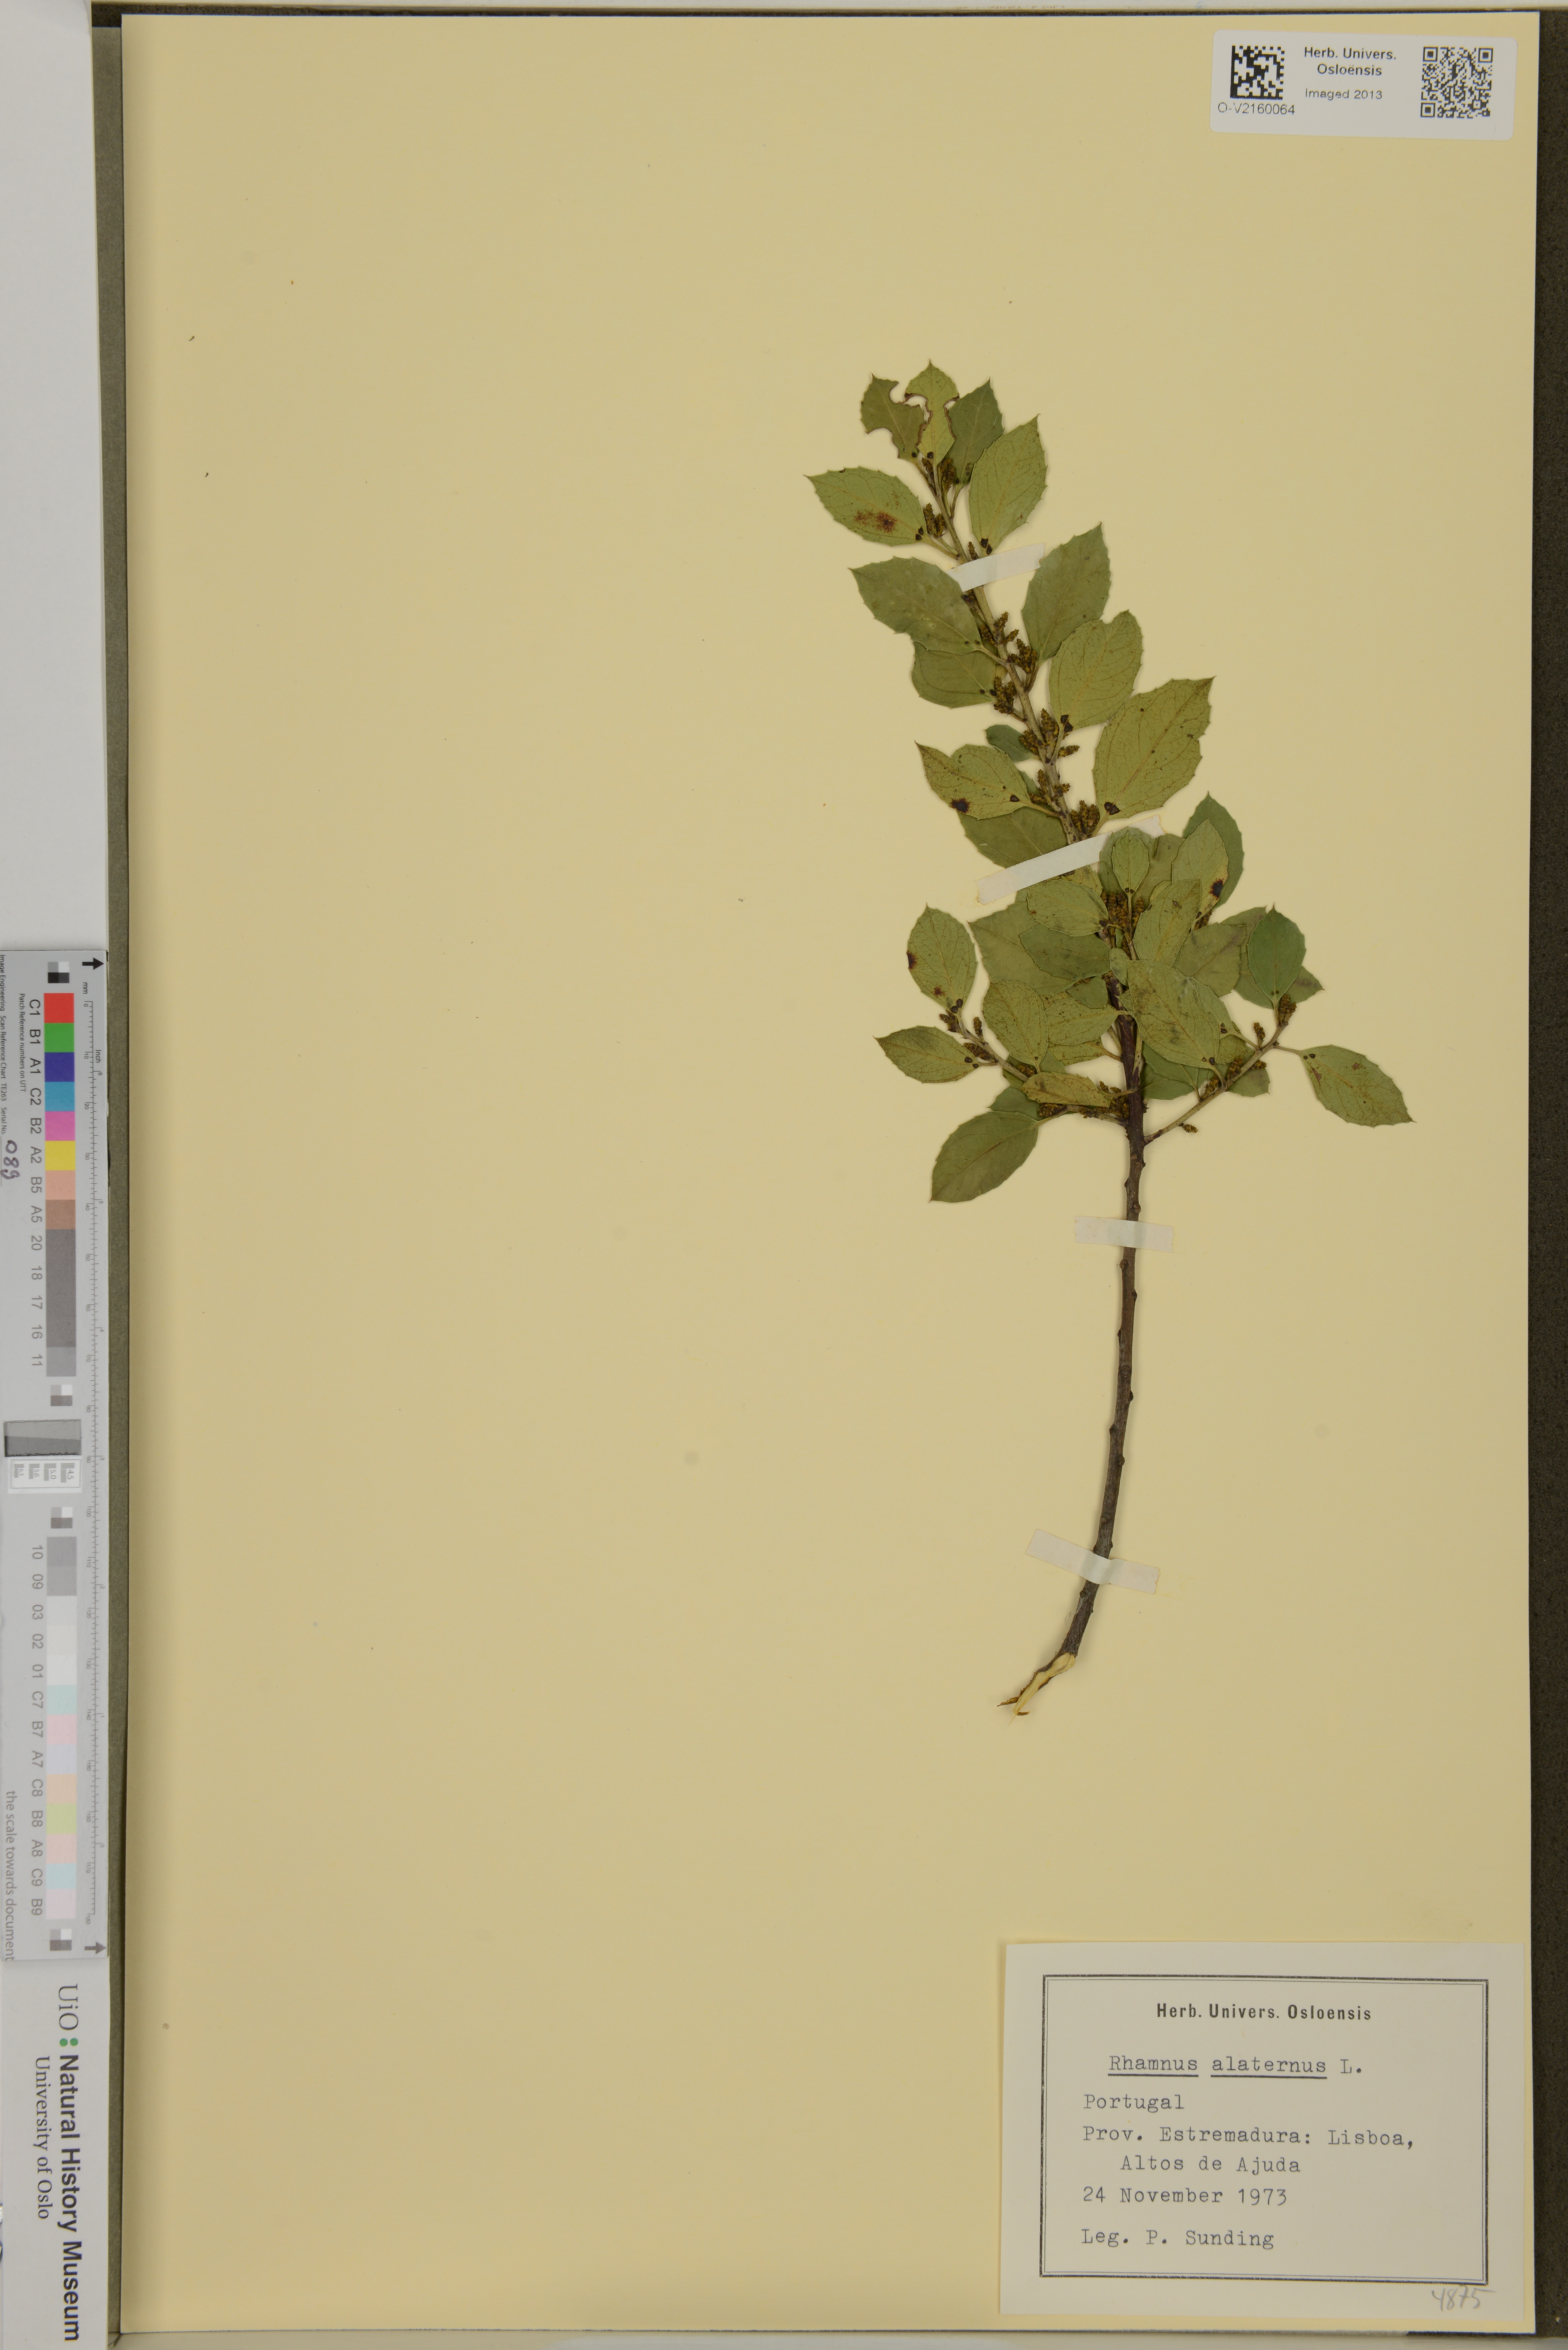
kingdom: Plantae
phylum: Tracheophyta
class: Magnoliopsida
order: Rosales
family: Rhamnaceae
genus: Rhamnus
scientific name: Rhamnus alaternus
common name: Mediterranean buckthorn
